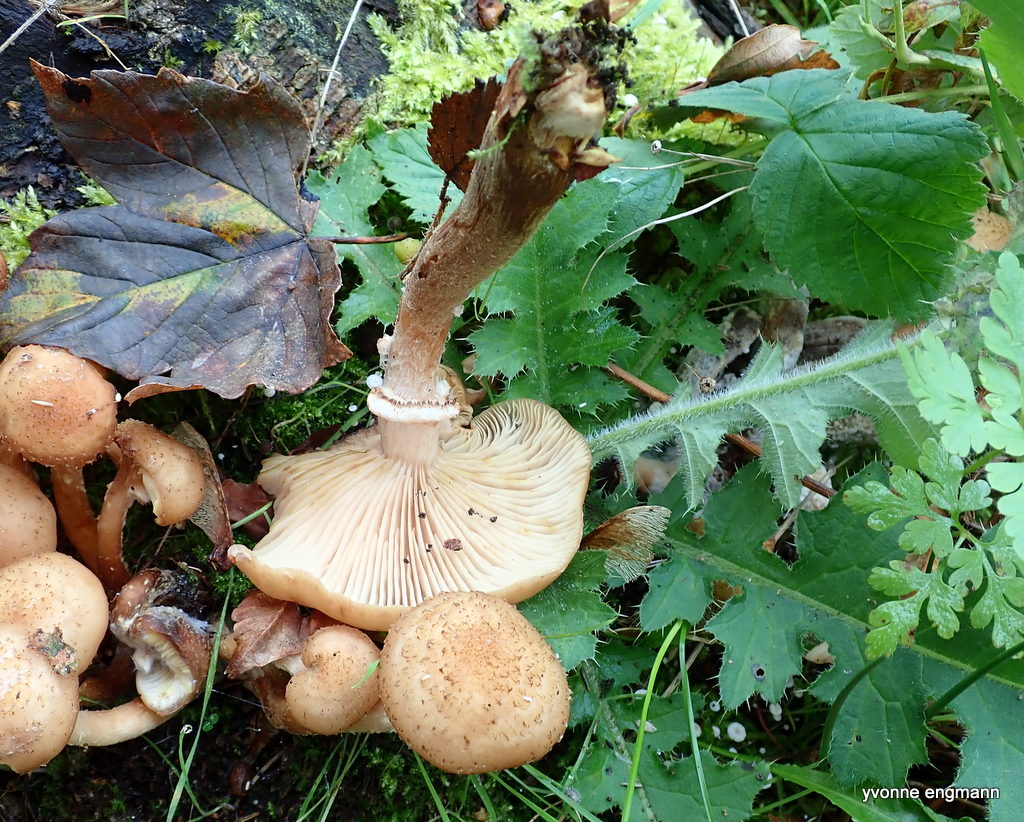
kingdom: Fungi
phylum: Basidiomycota
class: Agaricomycetes
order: Agaricales
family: Physalacriaceae
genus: Armillaria
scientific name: Armillaria ostoyae
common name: mørk honningsvamp
